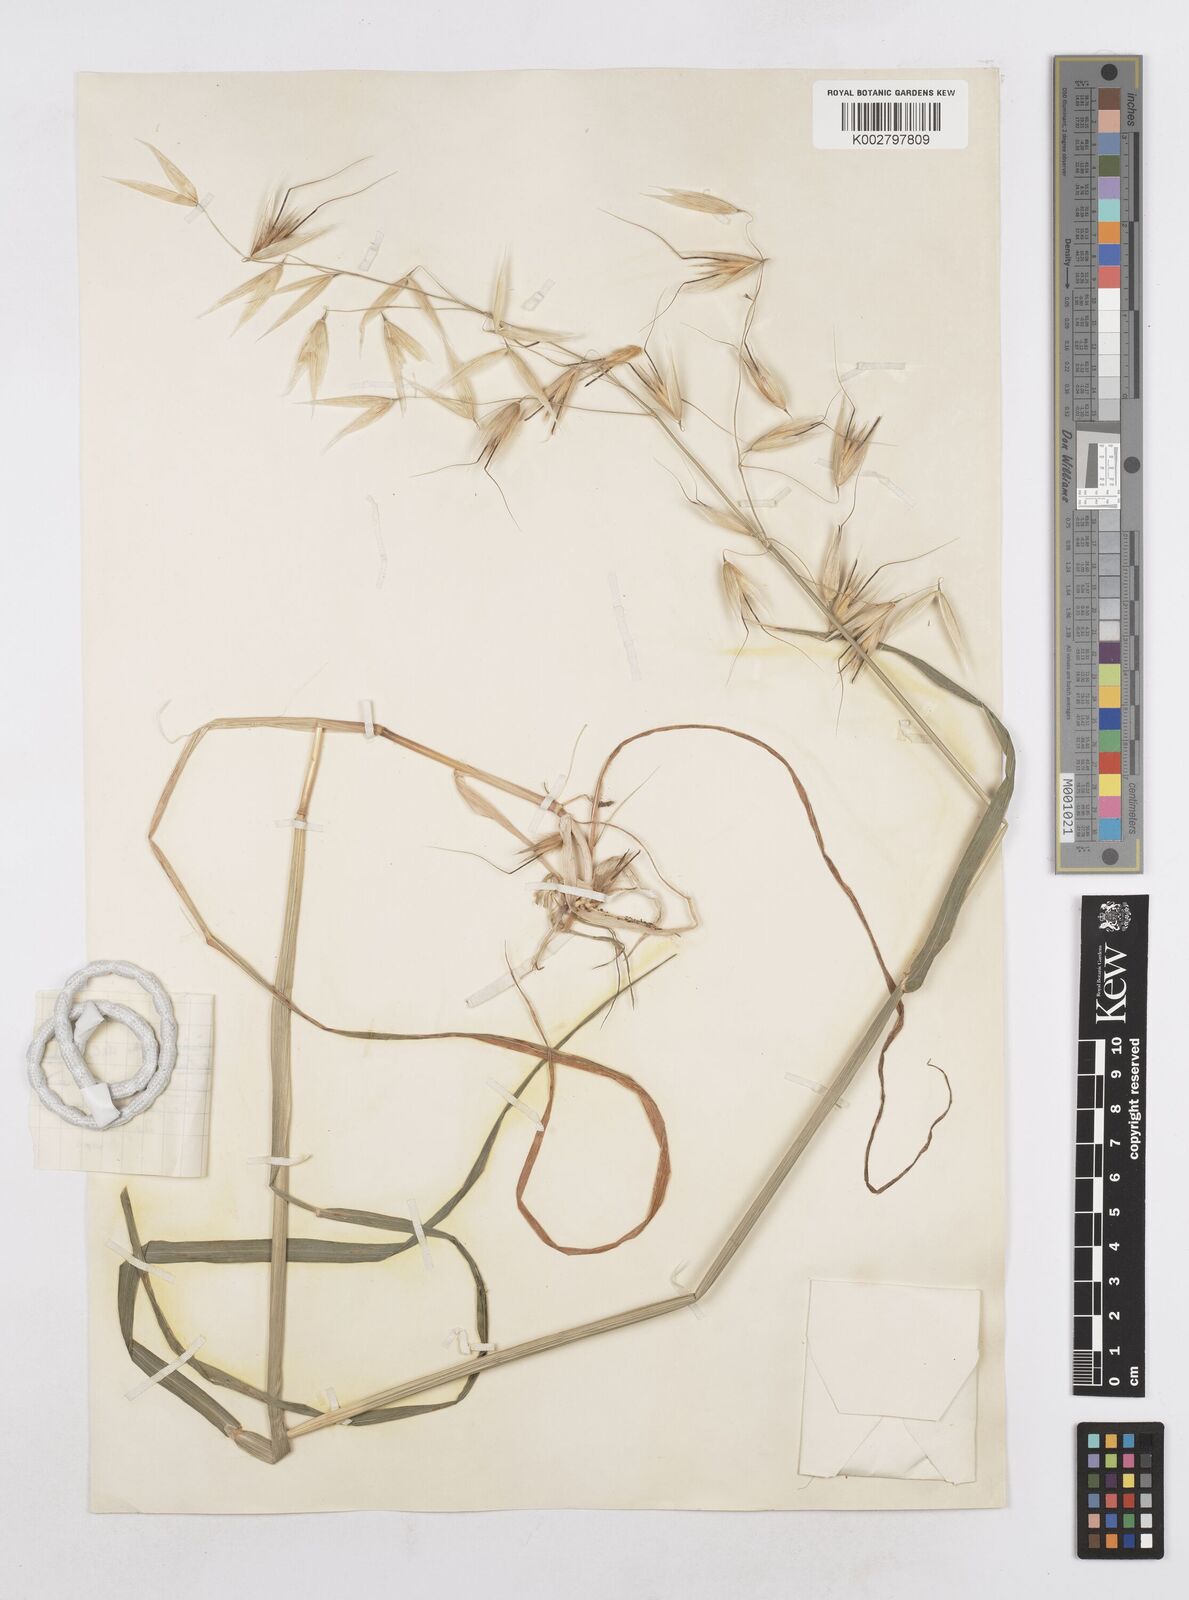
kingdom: Plantae
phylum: Tracheophyta
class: Liliopsida
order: Poales
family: Poaceae
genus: Avena
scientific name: Avena sterilis
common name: Animated oat
